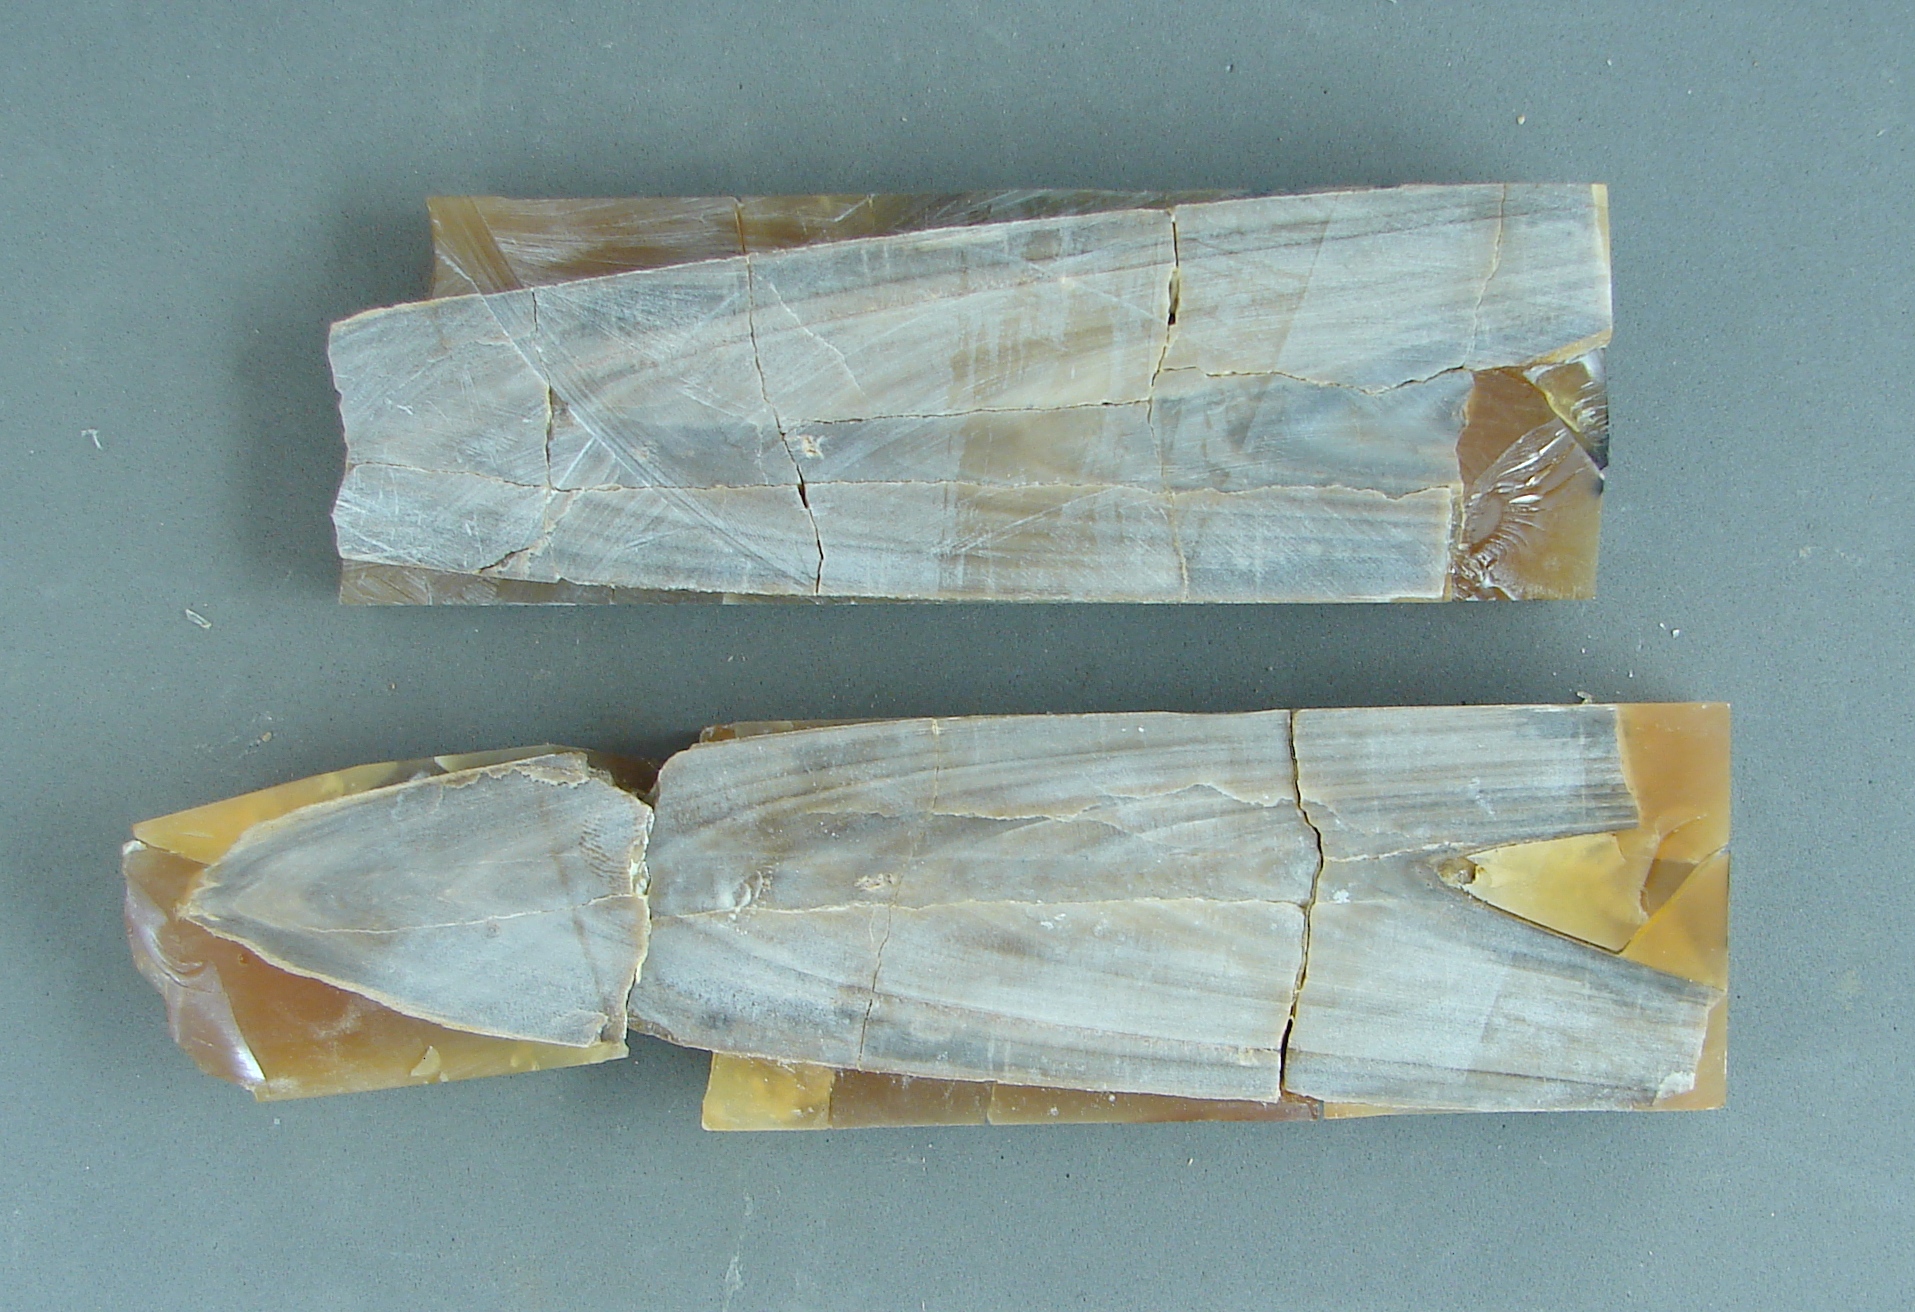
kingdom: Animalia
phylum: Mollusca
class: Cephalopoda
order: Belemnitida
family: Megateuthididae
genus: Megateuthis
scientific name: Megateuthis
